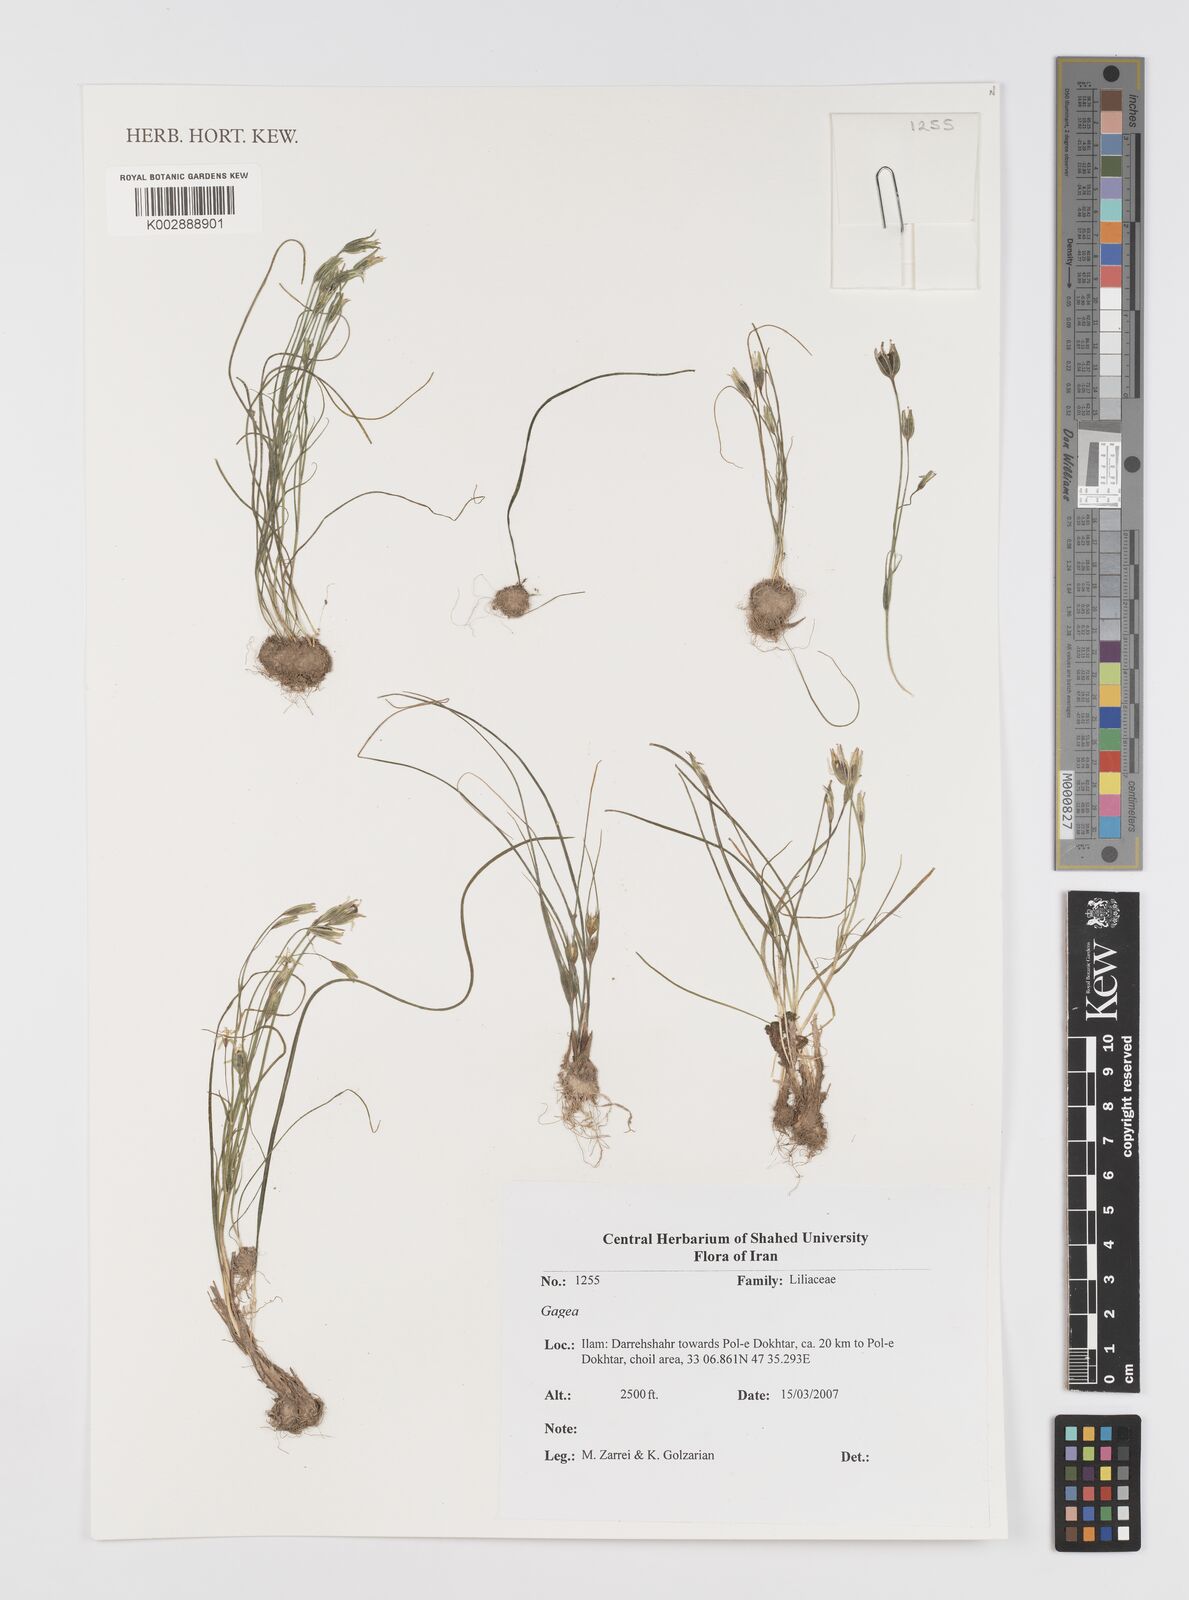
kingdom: Plantae
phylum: Tracheophyta
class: Liliopsida
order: Liliales
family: Liliaceae
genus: Gagea
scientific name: Gagea
